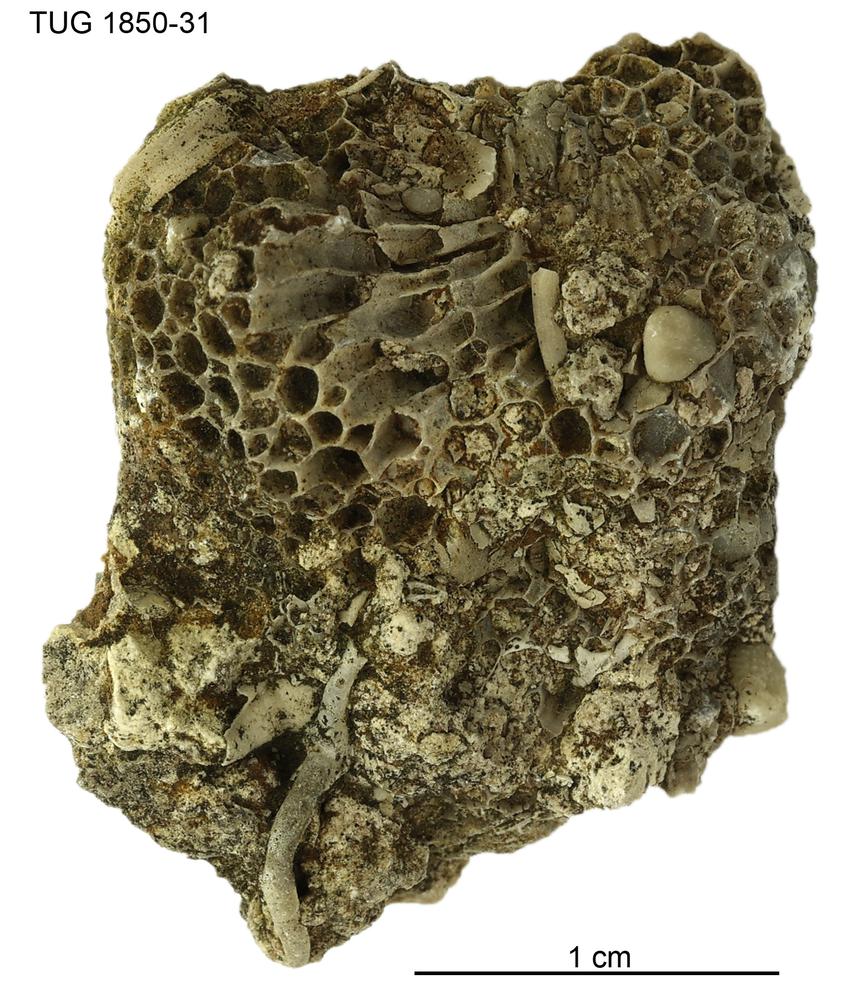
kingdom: Animalia
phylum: Cnidaria
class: Anthozoa
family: Favositidae
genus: Favosites
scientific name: Favosites
